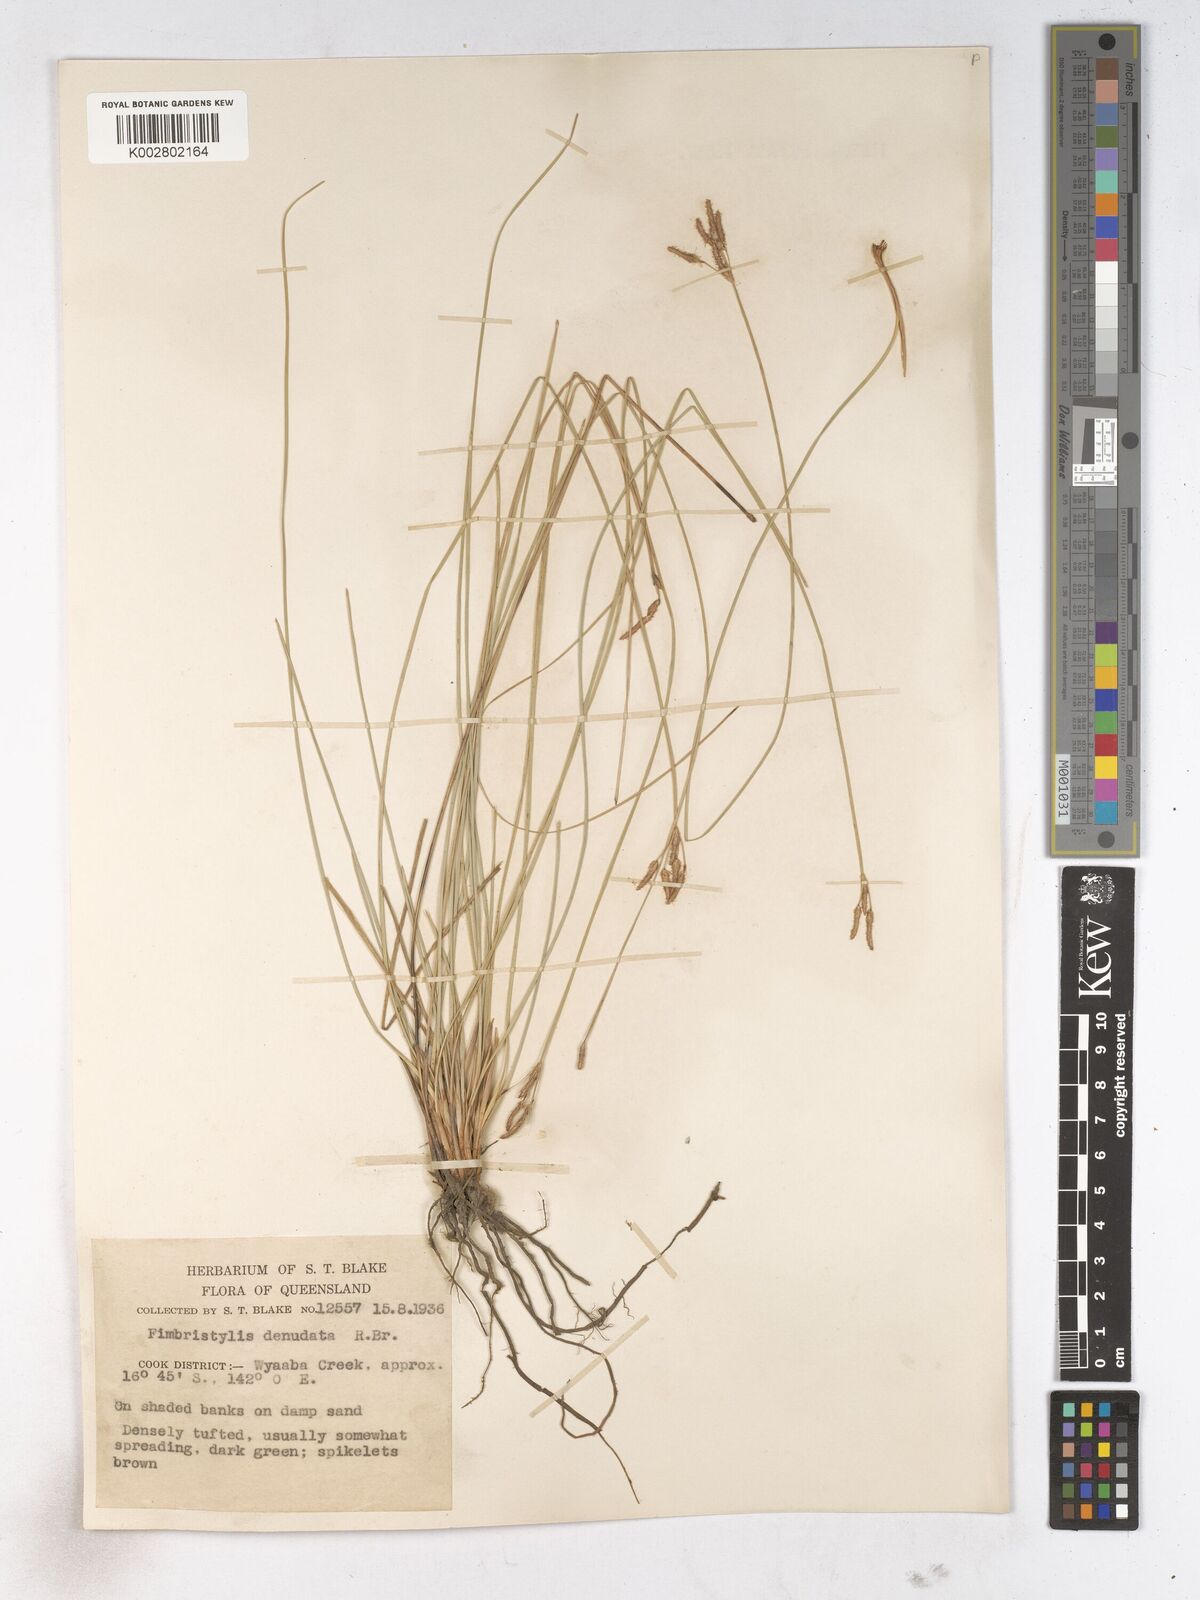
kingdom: Plantae
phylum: Tracheophyta
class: Liliopsida
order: Poales
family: Cyperaceae
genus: Fimbristylis
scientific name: Fimbristylis denudata
